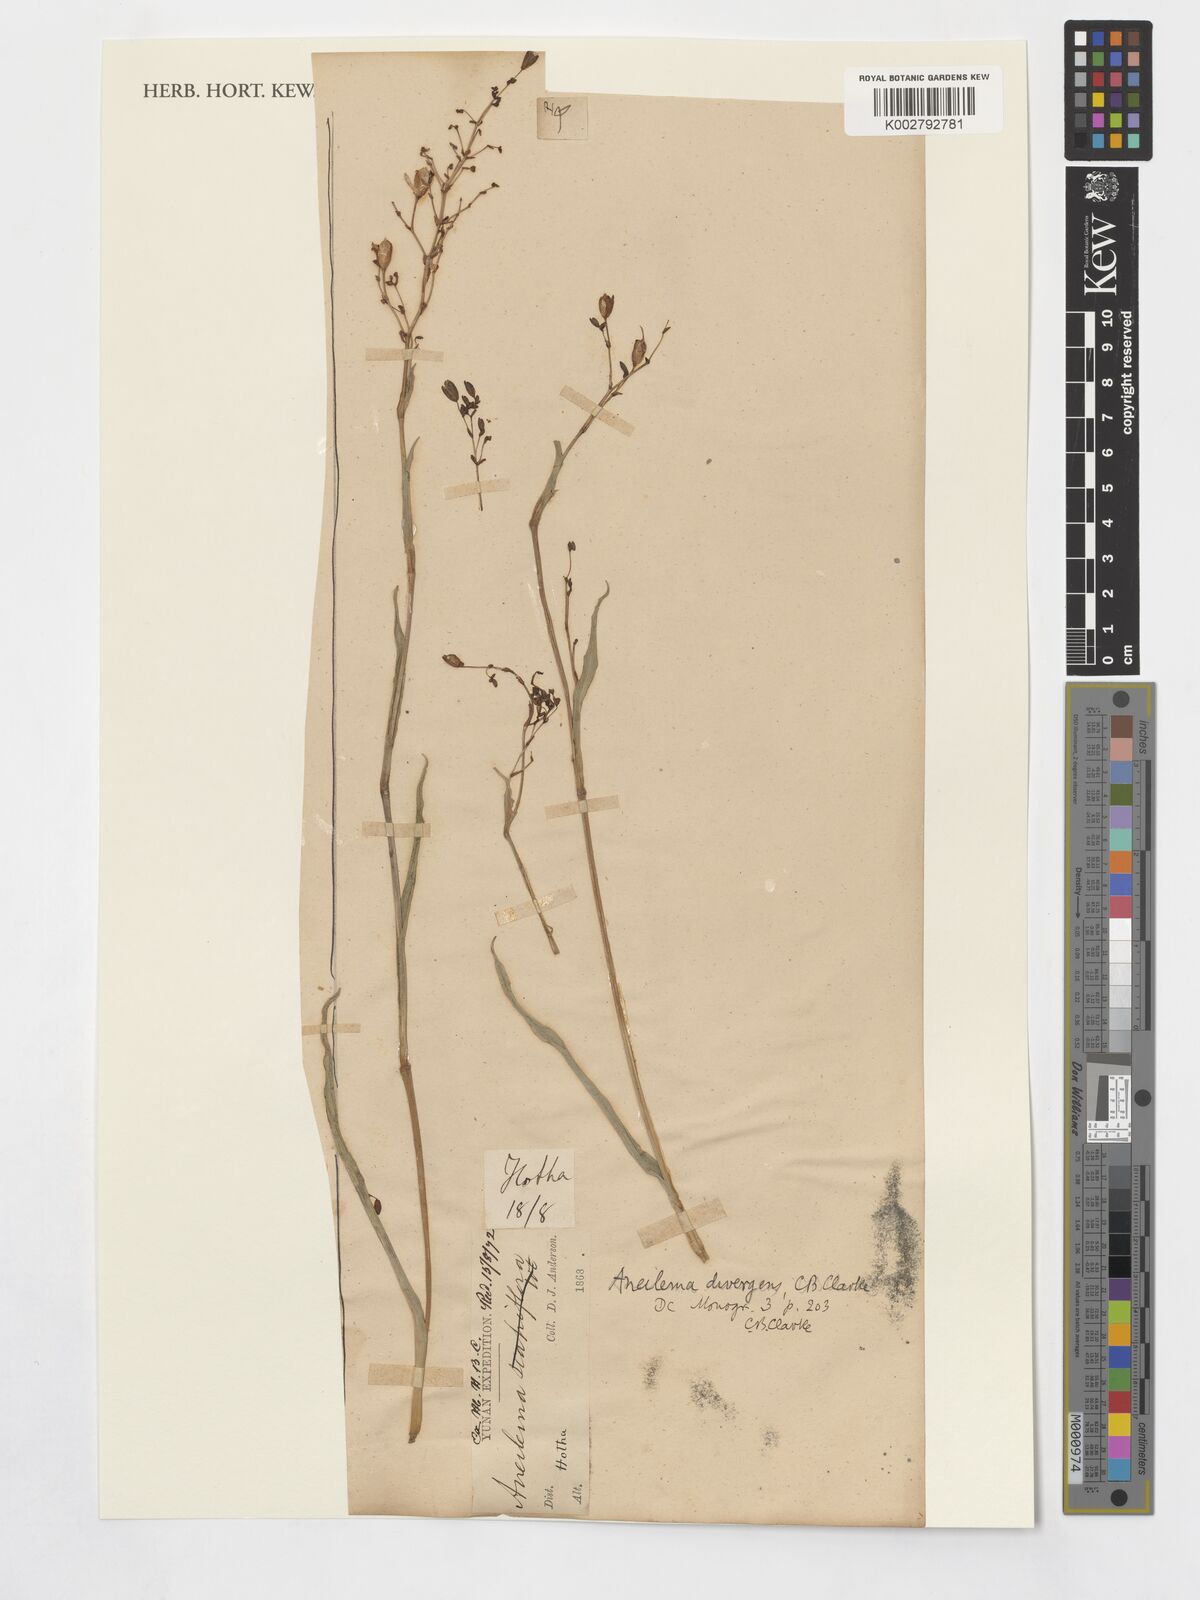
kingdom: Plantae
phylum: Tracheophyta
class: Liliopsida
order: Commelinales
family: Commelinaceae
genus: Murdannia
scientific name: Murdannia divergens
